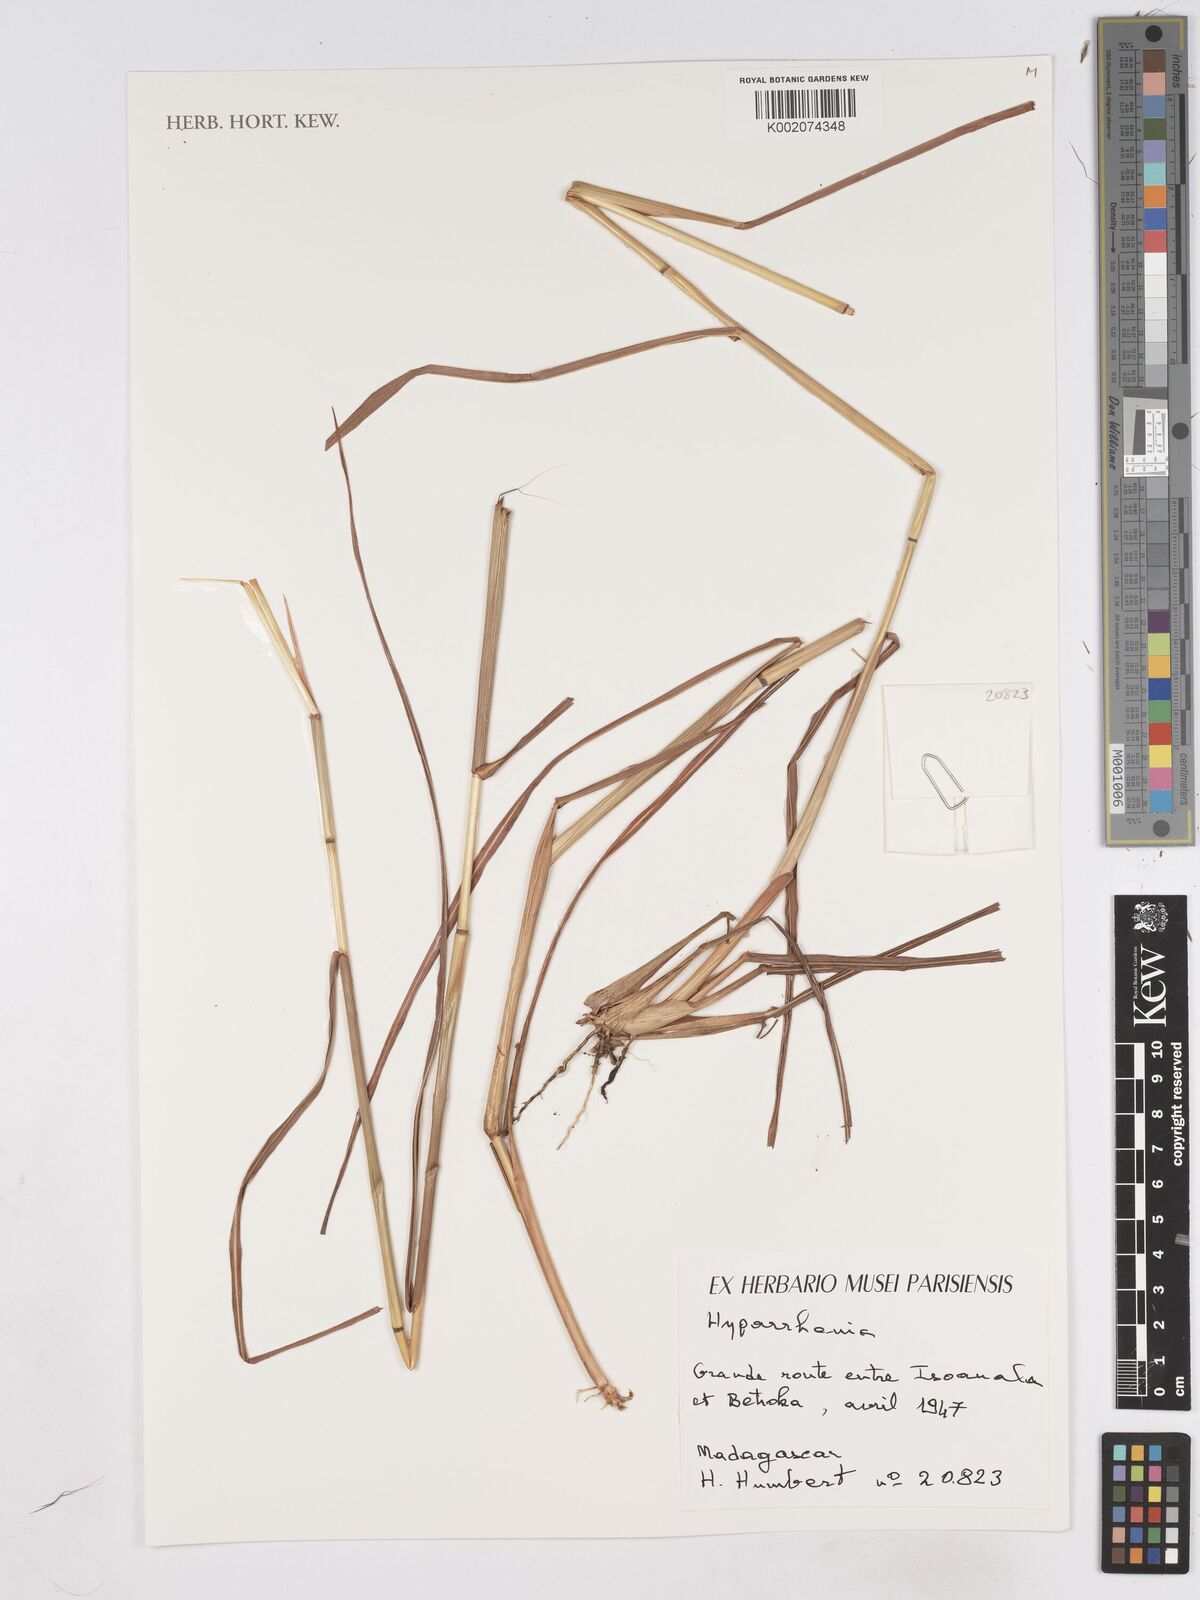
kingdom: Plantae
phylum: Tracheophyta
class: Liliopsida
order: Poales
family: Poaceae
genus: Hyparrhenia
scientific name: Hyparrhenia
